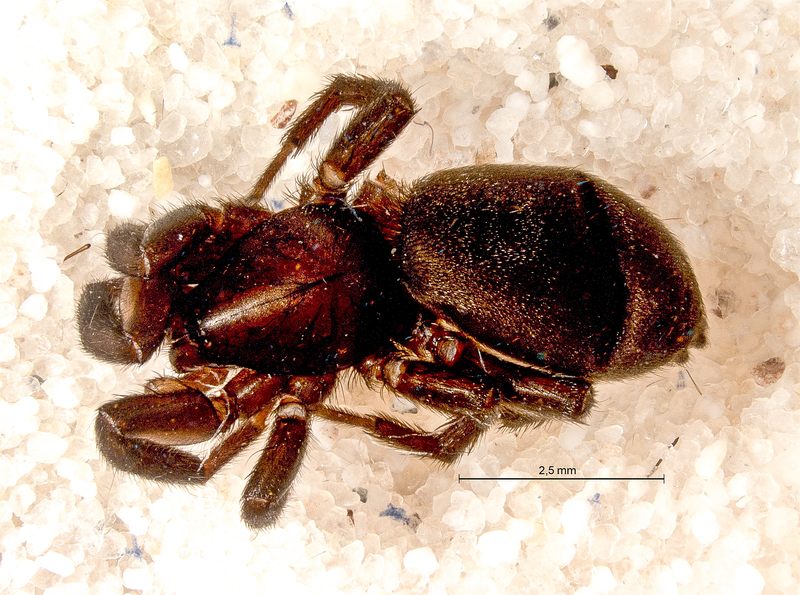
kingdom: Animalia
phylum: Arthropoda
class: Arachnida
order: Araneae
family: Gnaphosidae
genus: Zelotes
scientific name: Zelotes petrensis
